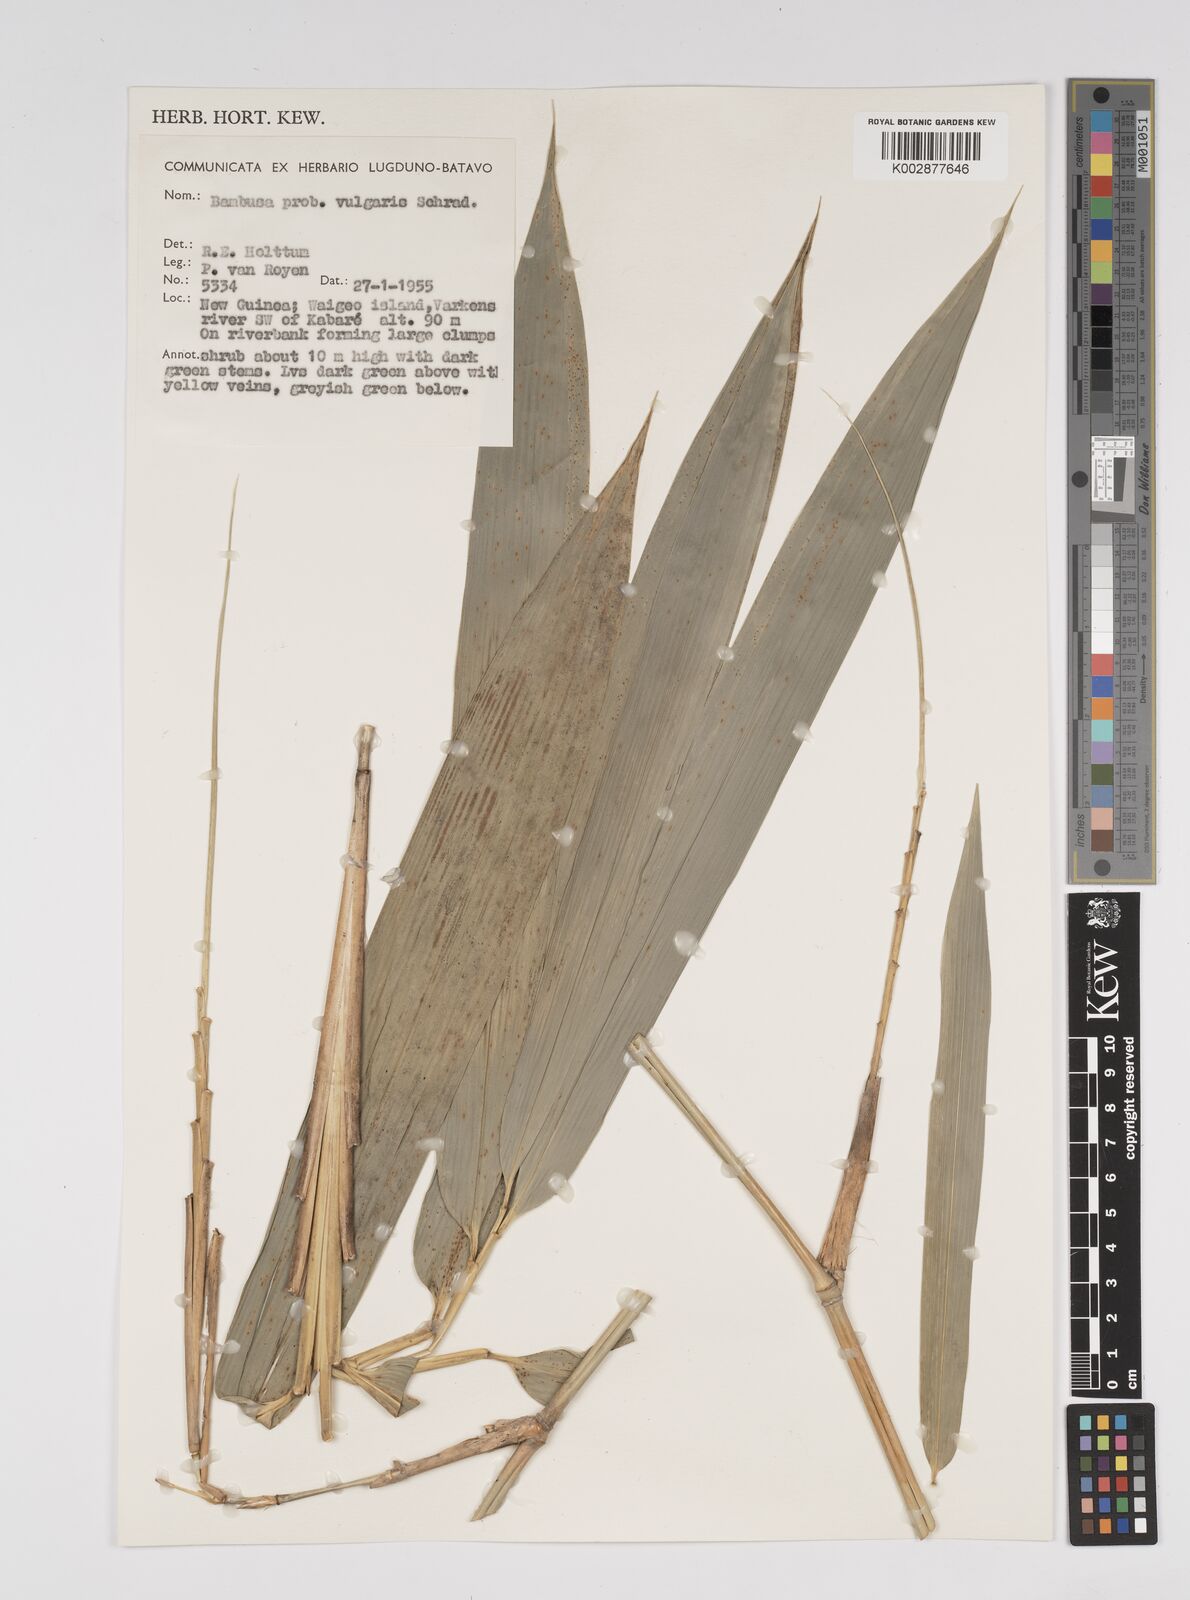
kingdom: Plantae
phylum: Tracheophyta
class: Liliopsida
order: Poales
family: Poaceae
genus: Bambusa
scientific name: Bambusa
